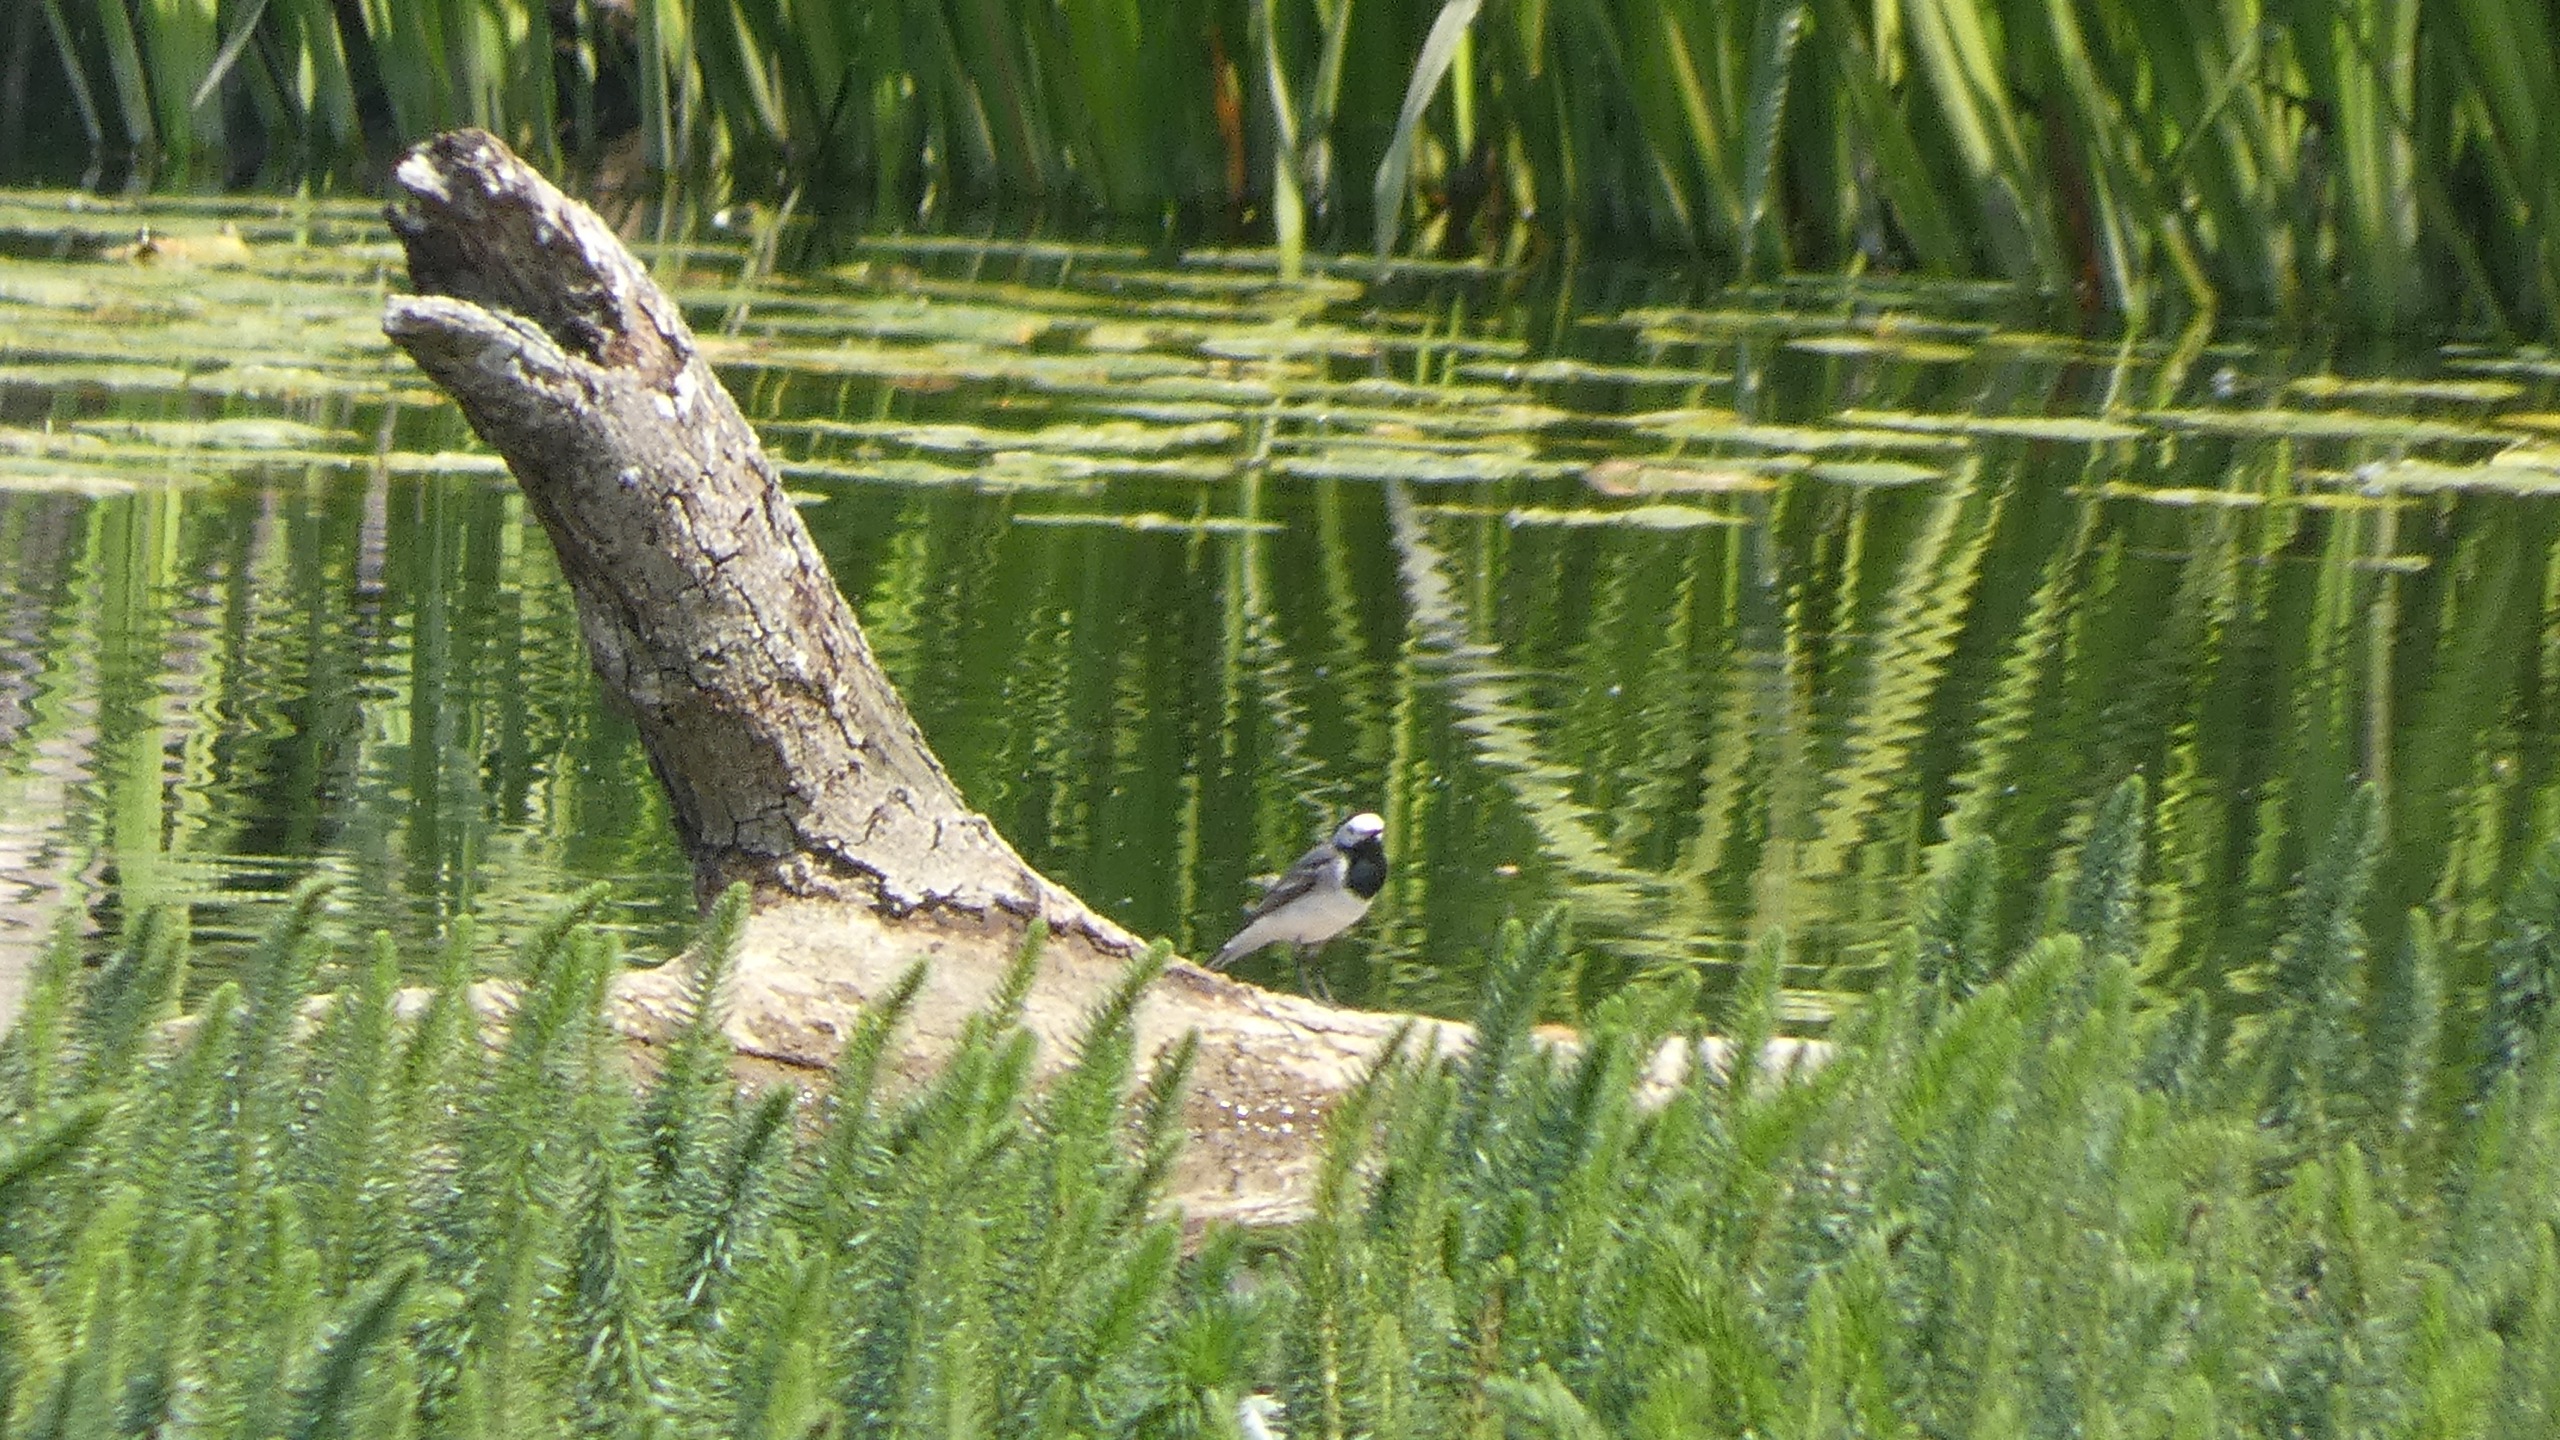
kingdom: Animalia
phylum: Chordata
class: Aves
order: Passeriformes
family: Motacillidae
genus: Motacilla
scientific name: Motacilla alba
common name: Hvid vipstjert
